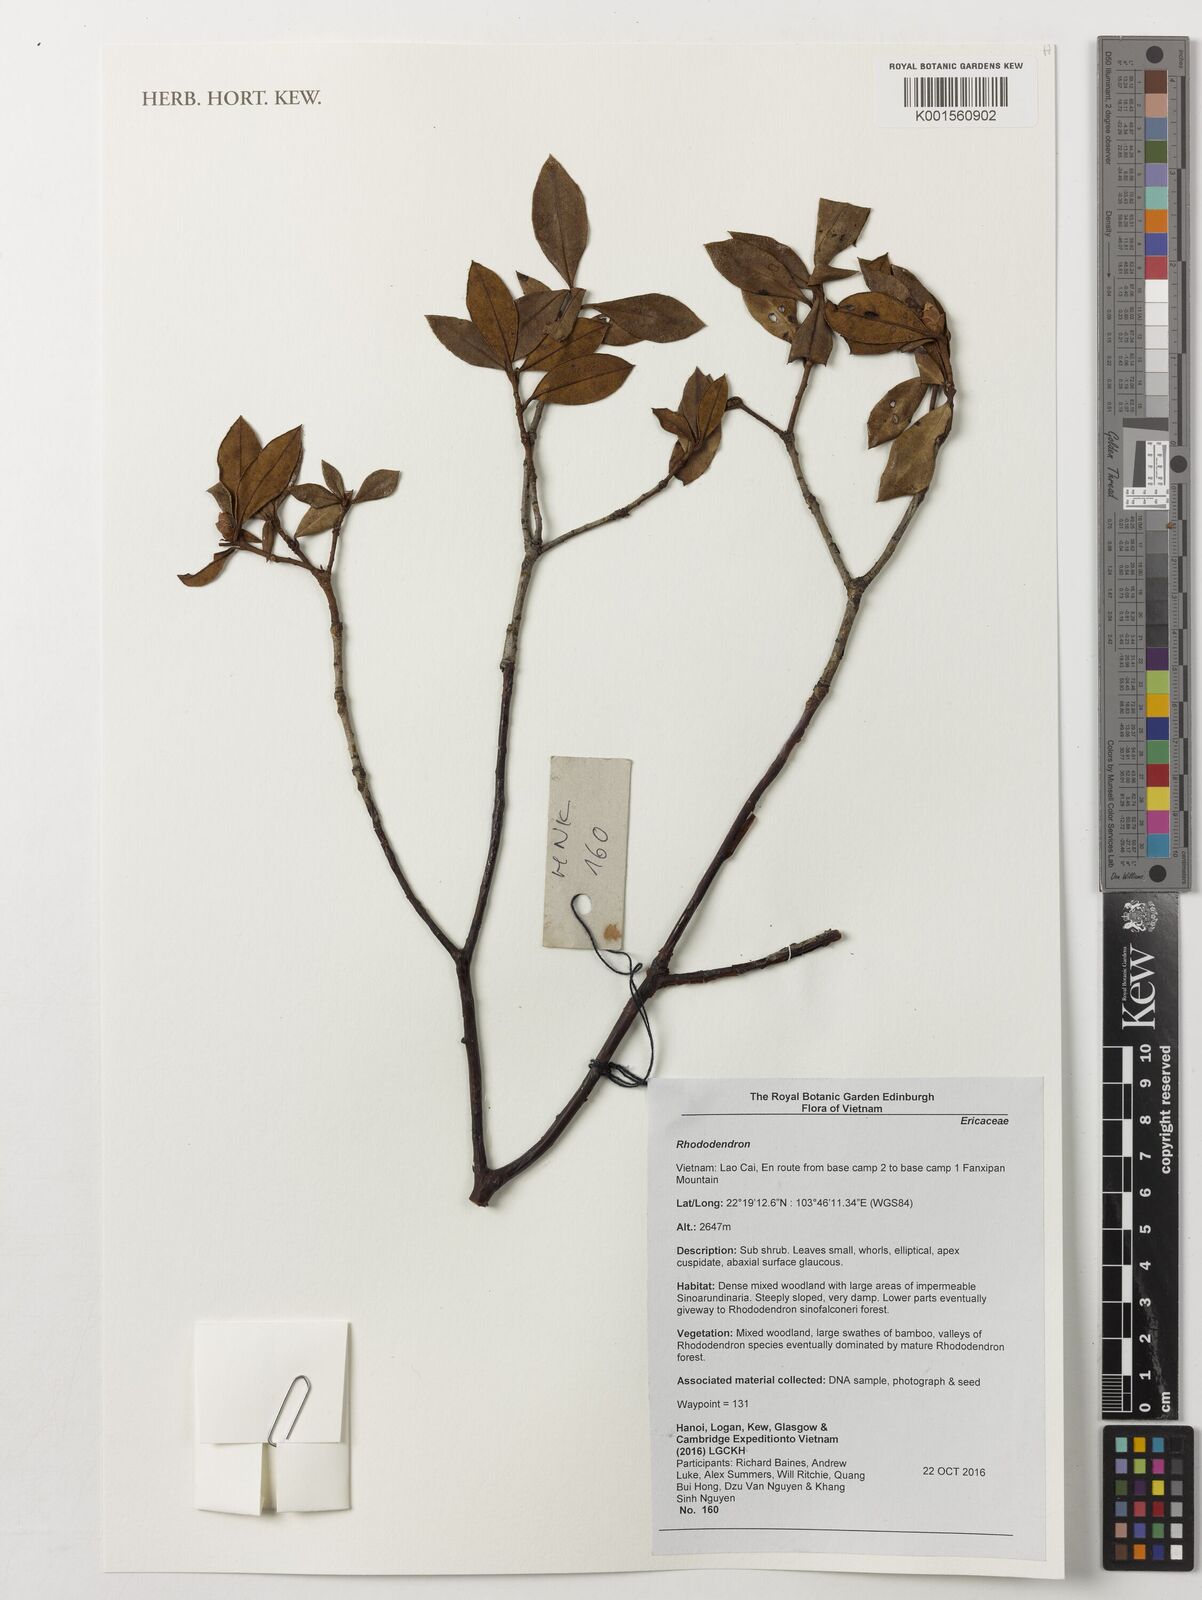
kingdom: Plantae
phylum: Tracheophyta
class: Magnoliopsida
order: Ericales
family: Ericaceae
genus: Rhododendron
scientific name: Rhododendron
